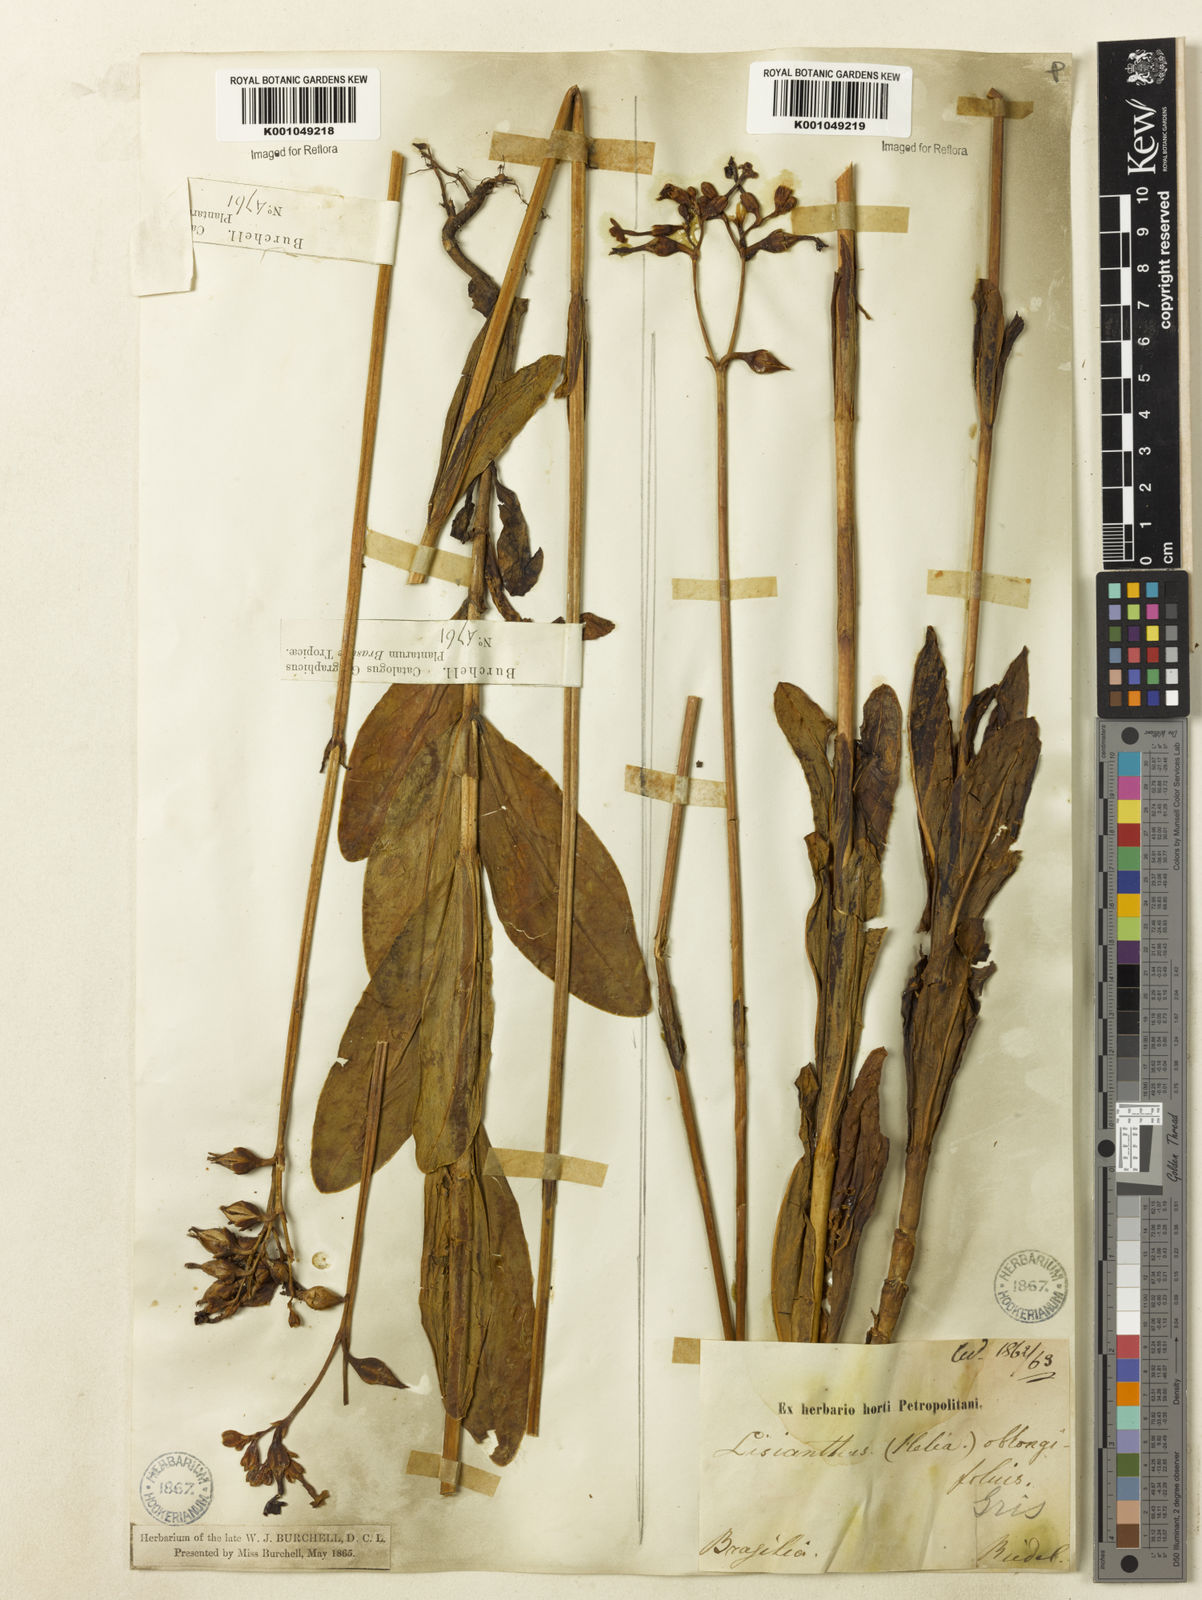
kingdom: Plantae
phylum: Tracheophyta
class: Magnoliopsida
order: Gentianales
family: Gentianaceae
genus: Irlbachia
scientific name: Irlbachia oblongifolia
